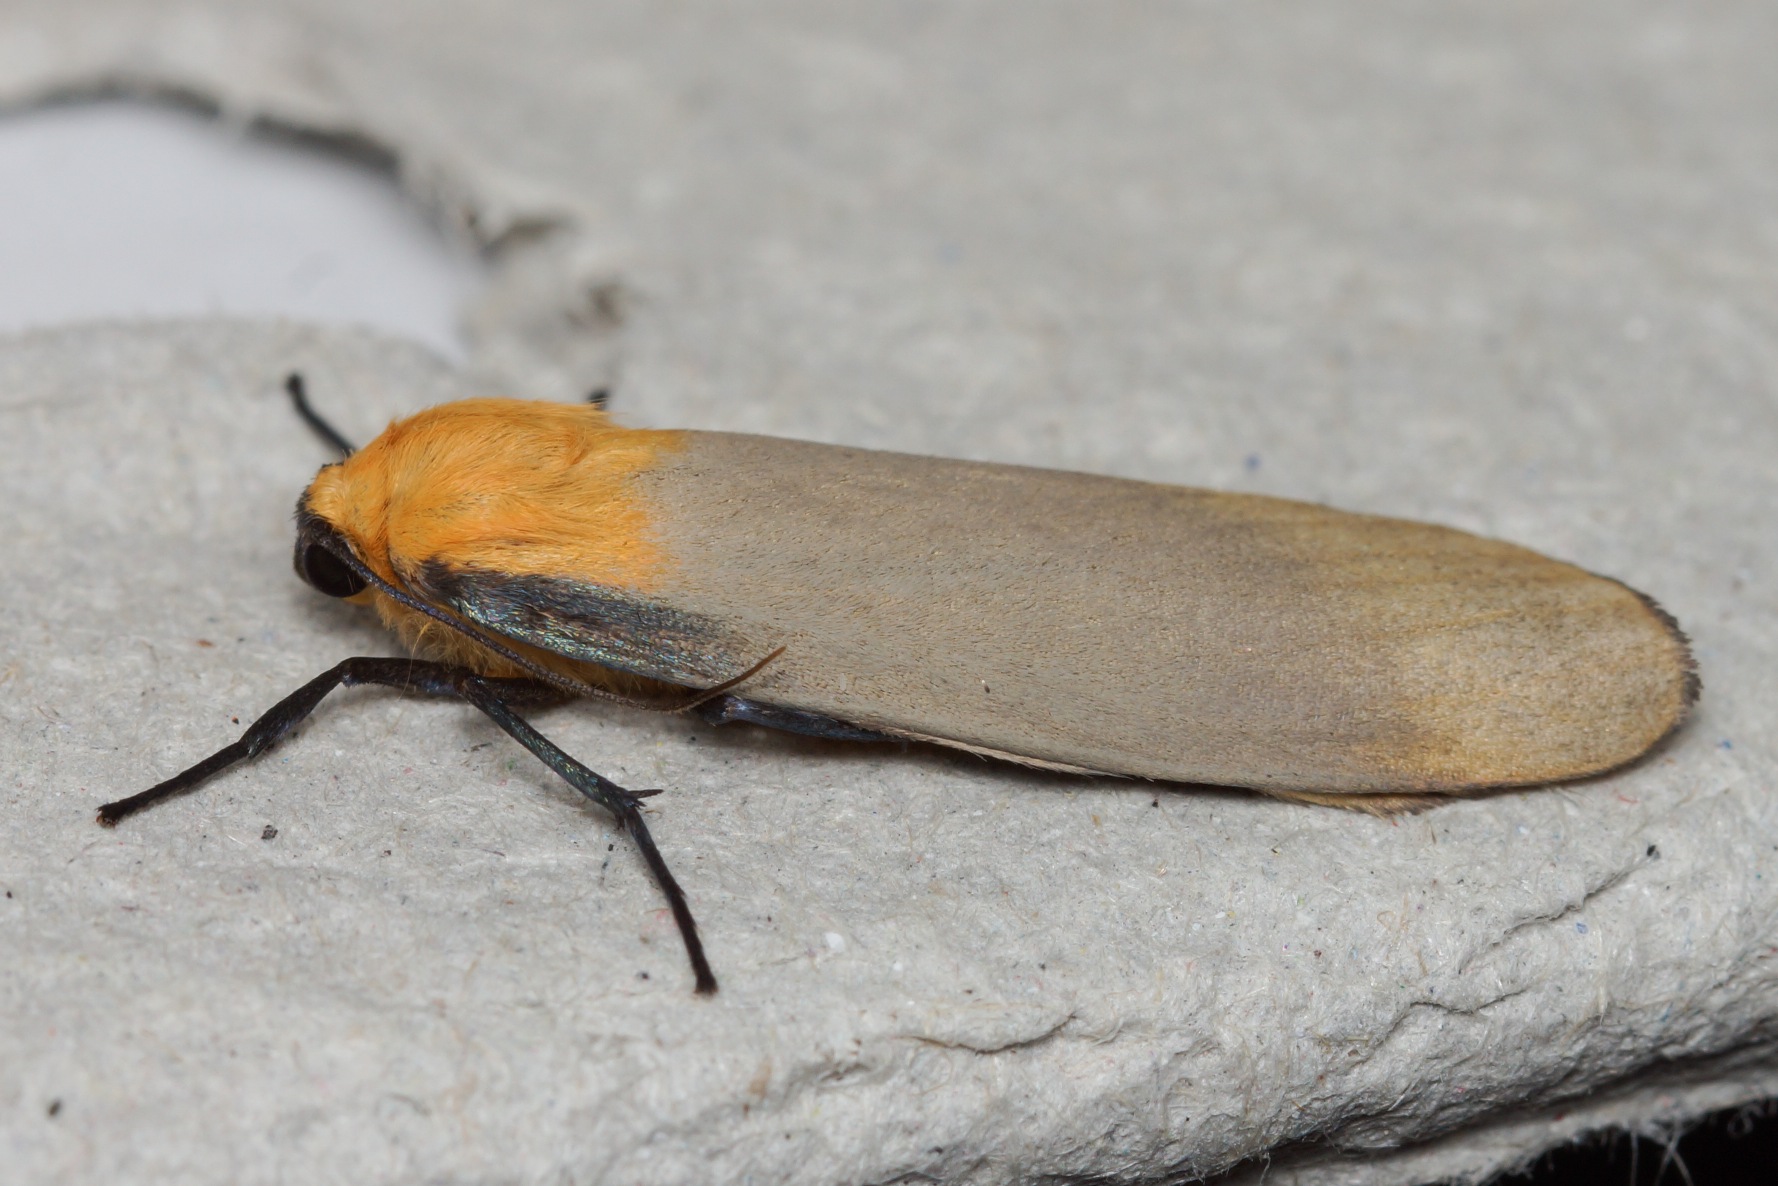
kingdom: Animalia
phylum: Arthropoda
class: Insecta
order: Lepidoptera
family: Erebidae
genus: Lithosia
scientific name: Lithosia quadra
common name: Stor lavspinder
